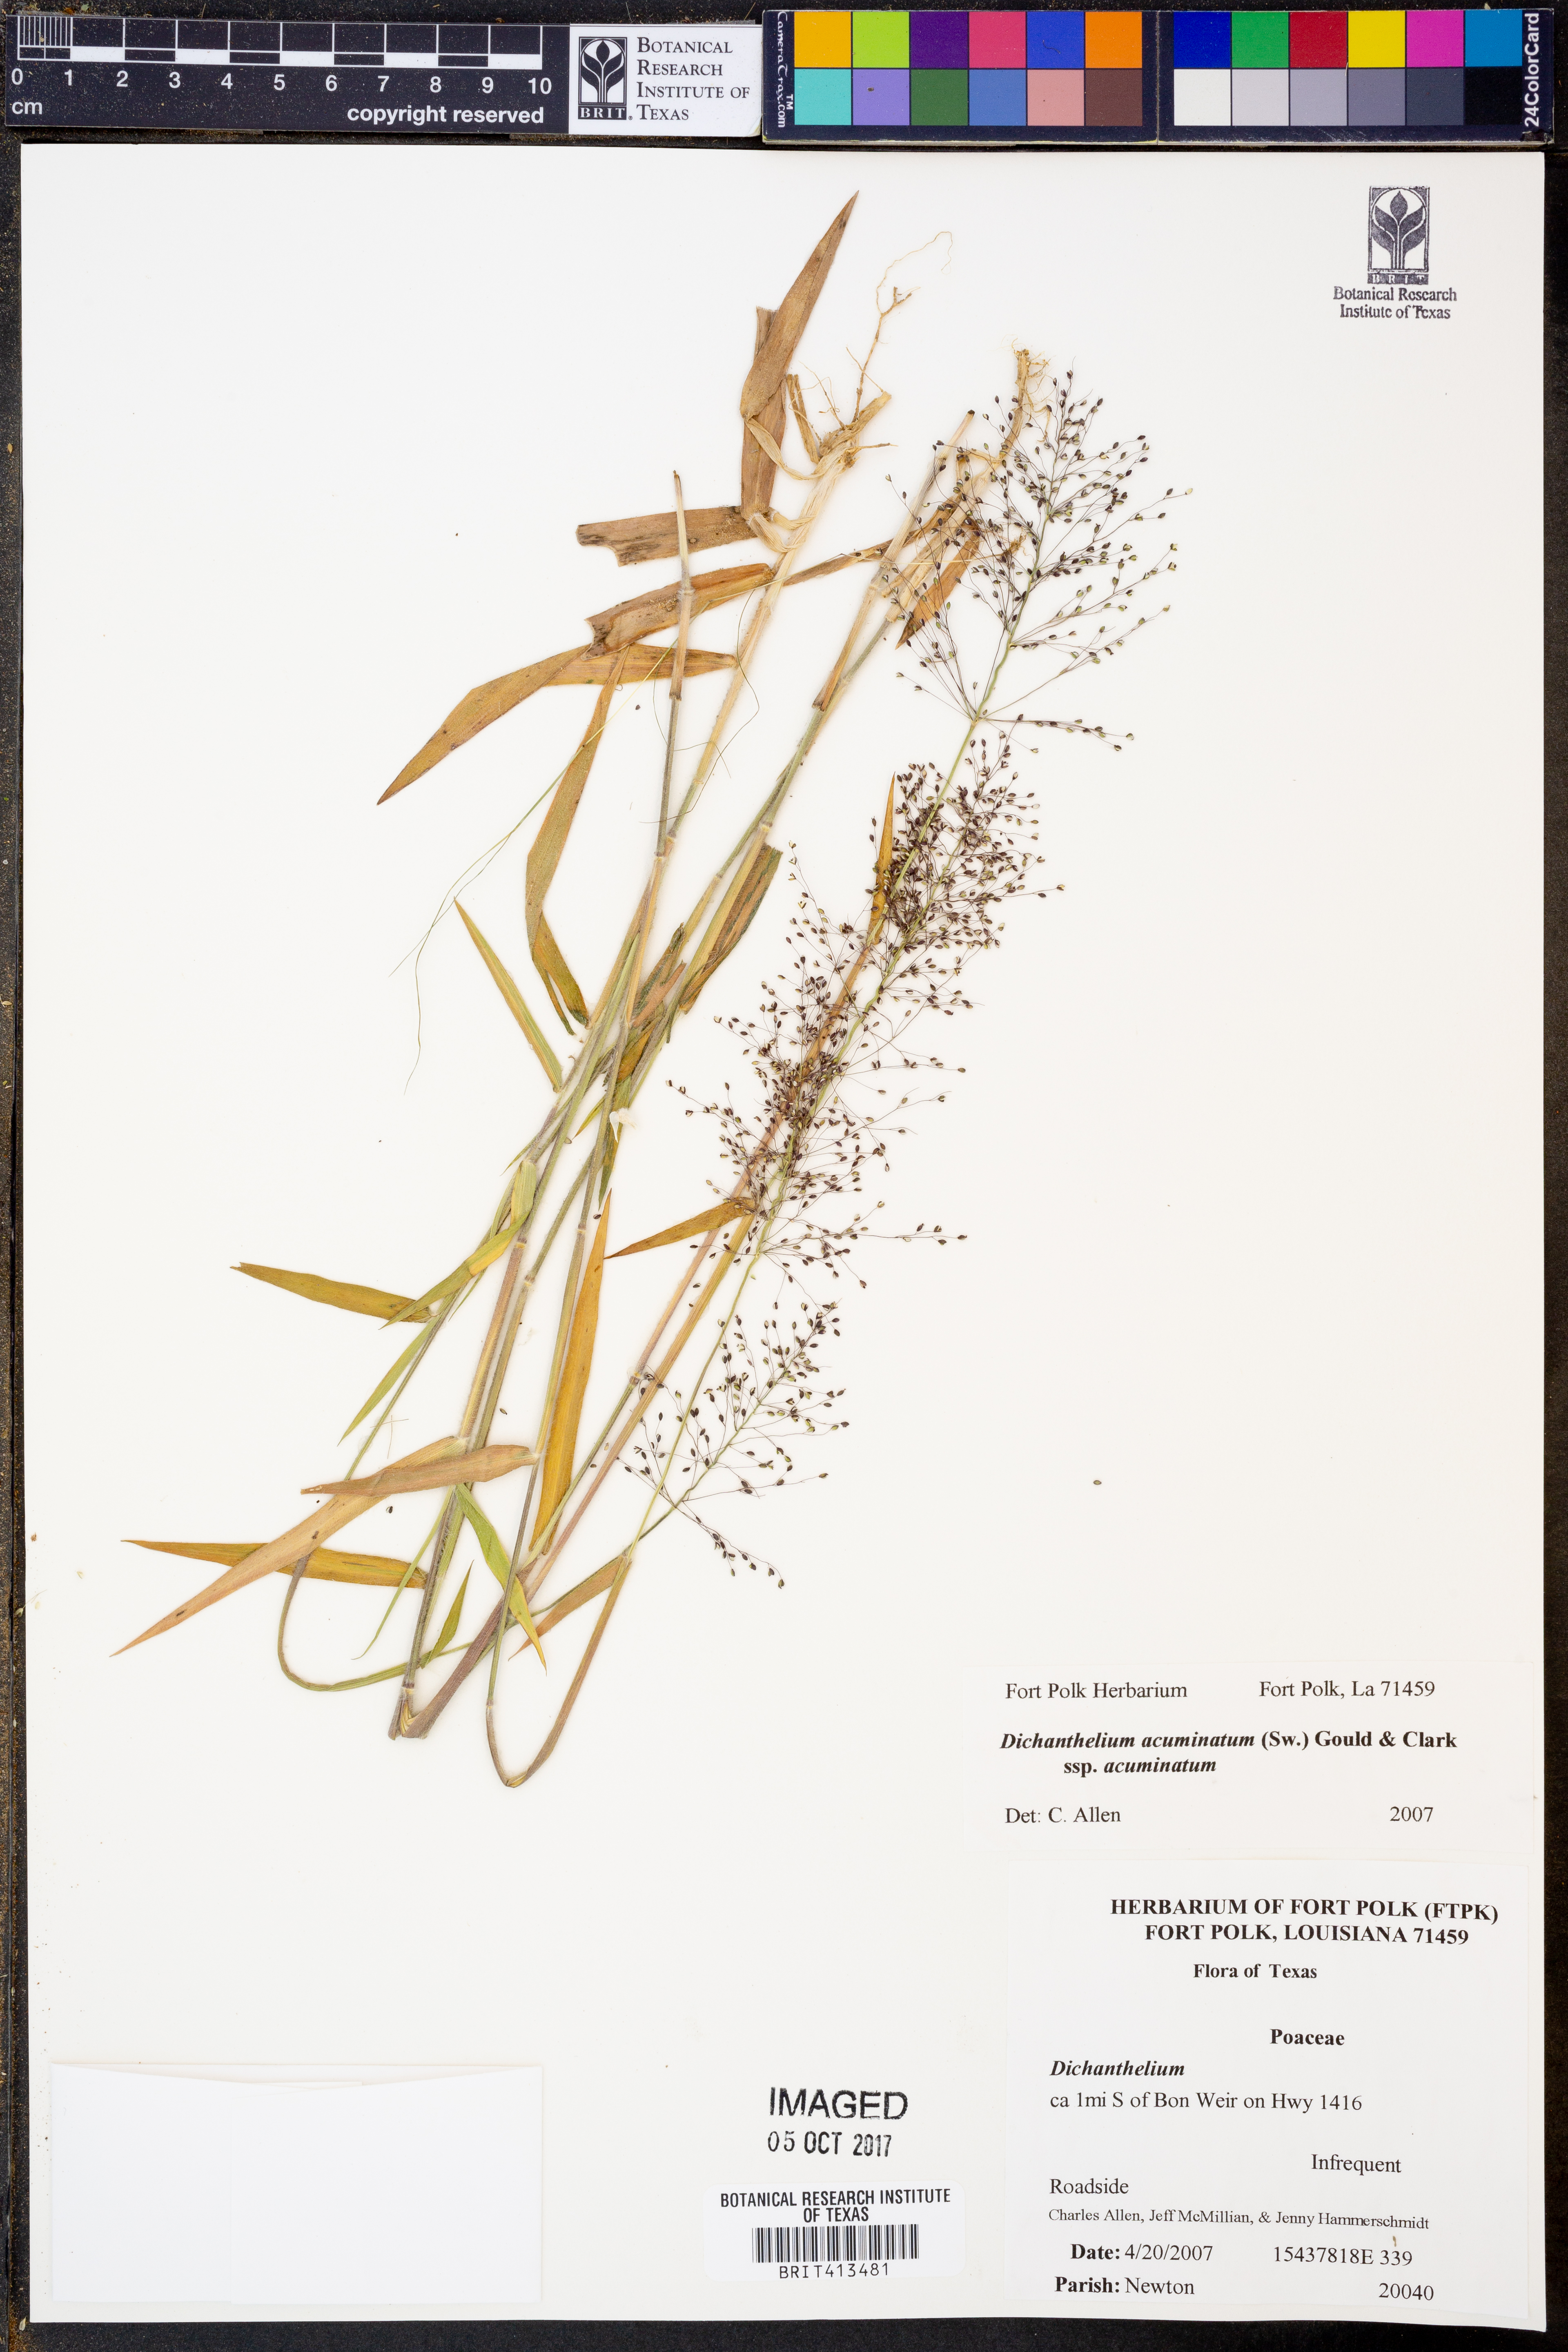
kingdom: Plantae
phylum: Tracheophyta
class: Liliopsida
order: Poales
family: Poaceae
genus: Dichanthelium
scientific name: Dichanthelium acuminatum
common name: Hairy panic grass
